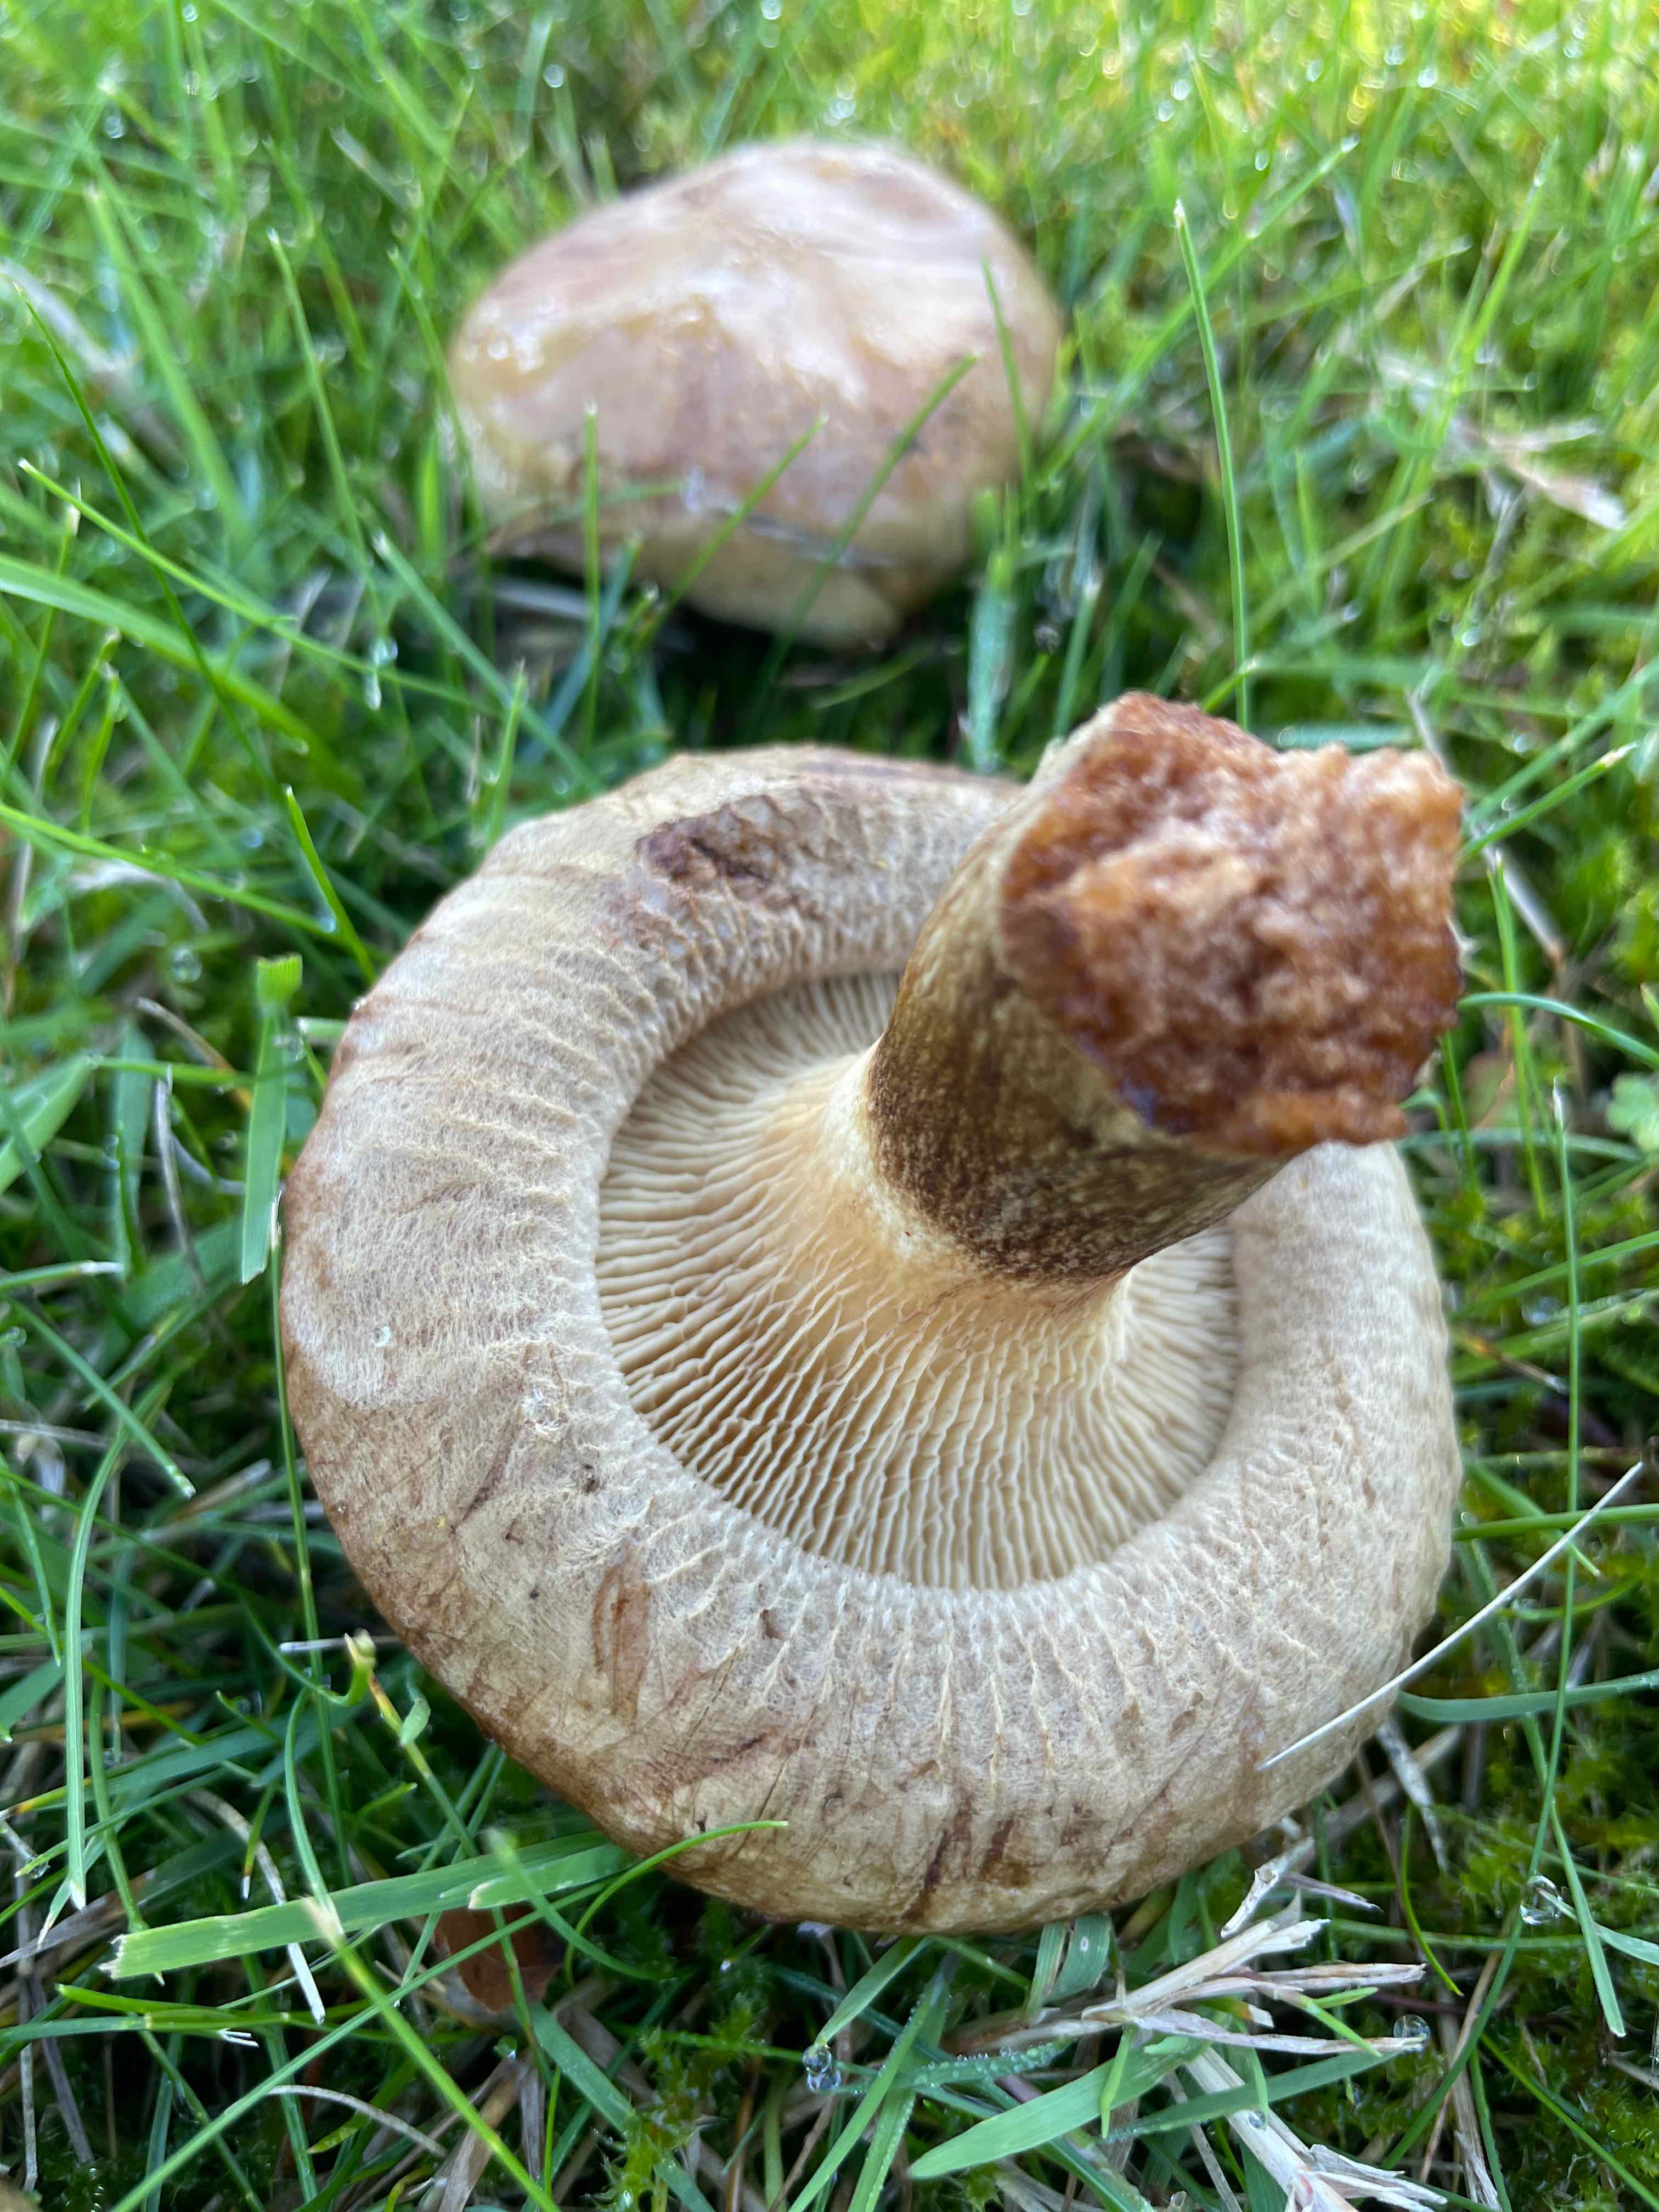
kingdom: Fungi
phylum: Basidiomycota
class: Agaricomycetes
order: Boletales
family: Paxillaceae
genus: Paxillus
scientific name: Paxillus
